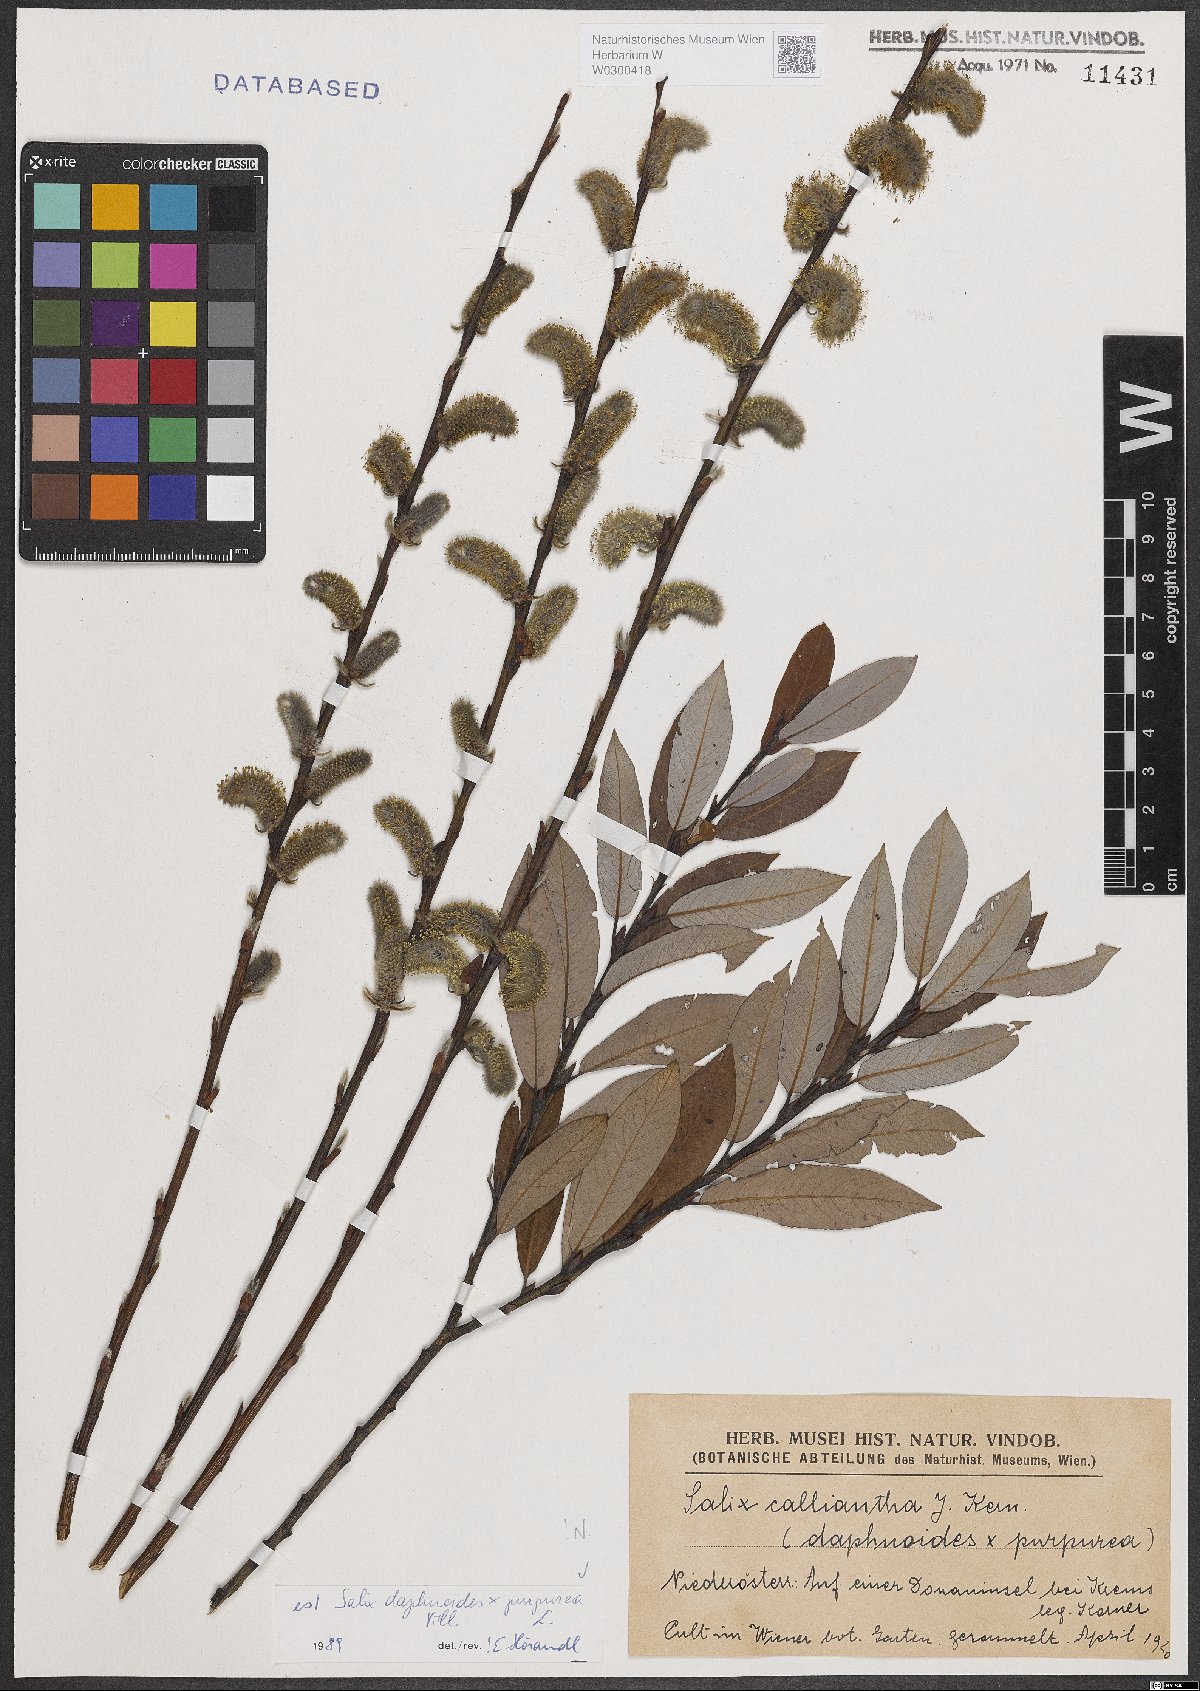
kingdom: Plantae
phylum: Tracheophyta
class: Magnoliopsida
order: Malpighiales
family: Salicaceae
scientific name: Salicaceae
